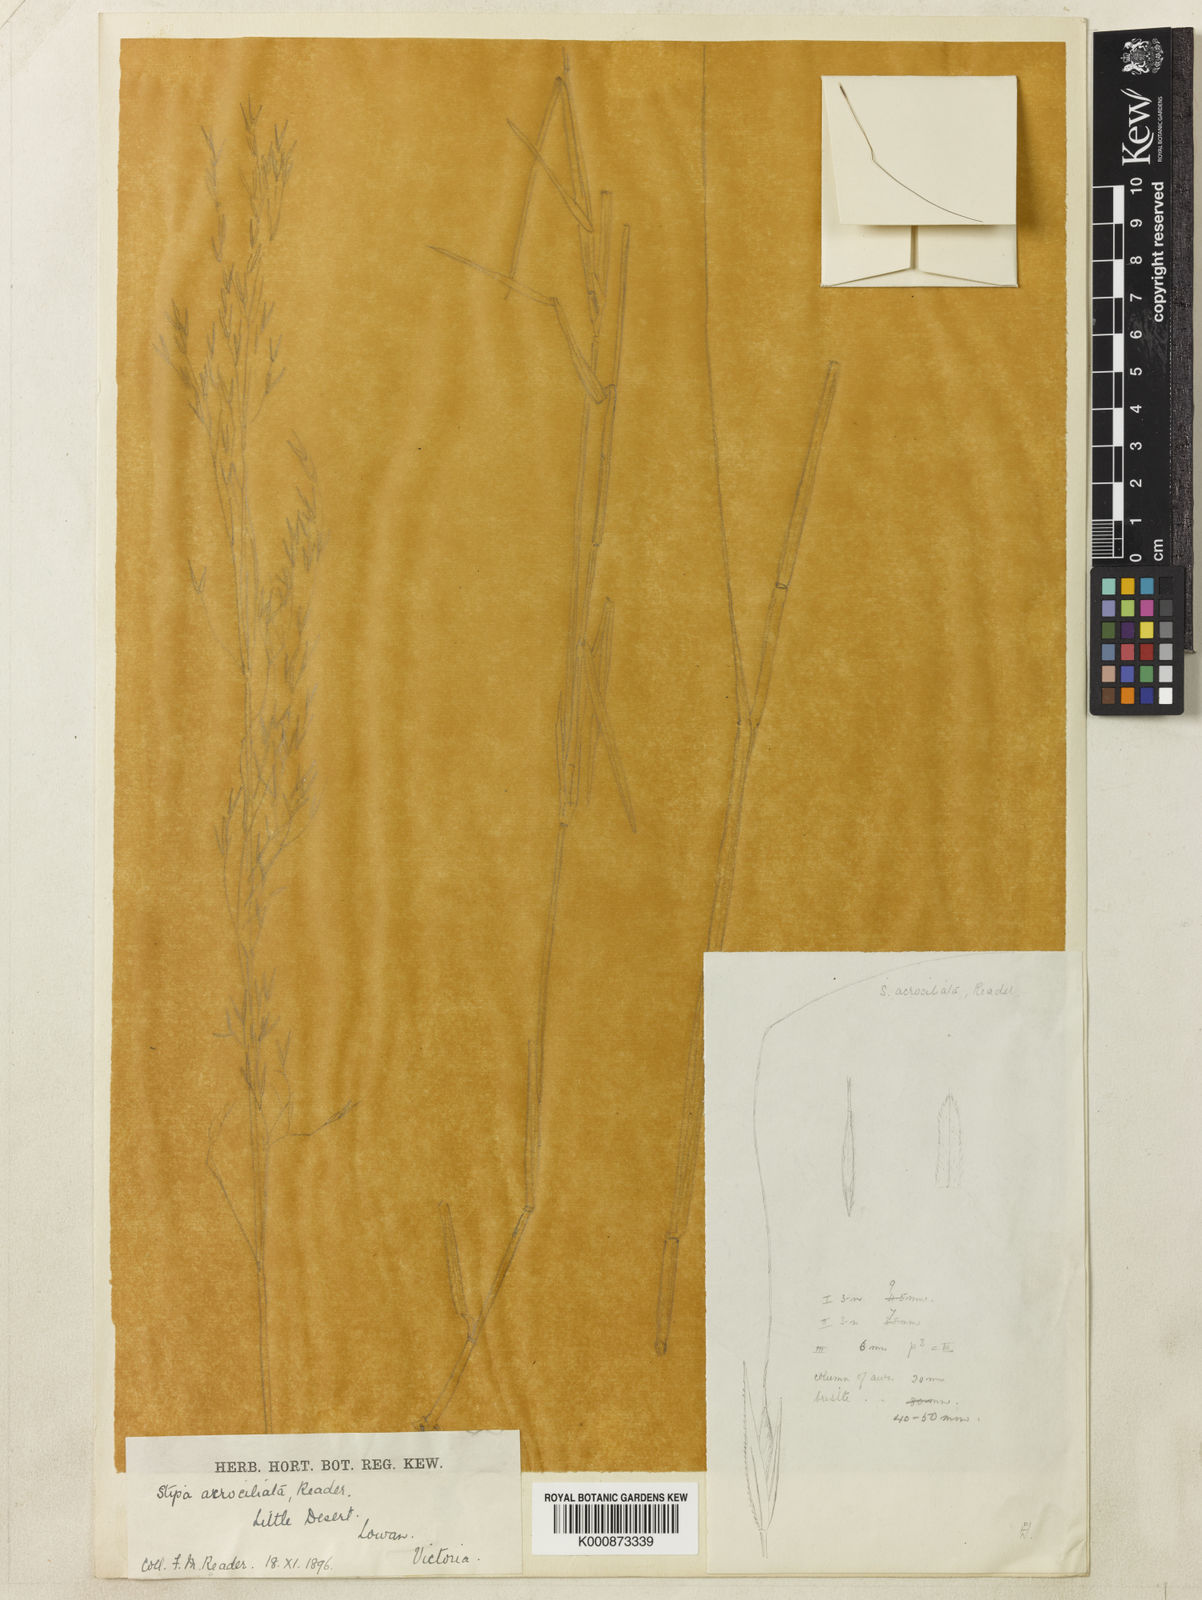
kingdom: Plantae
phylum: Tracheophyta
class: Liliopsida
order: Poales
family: Poaceae
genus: Austrostipa
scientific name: Austrostipa acrociliata
